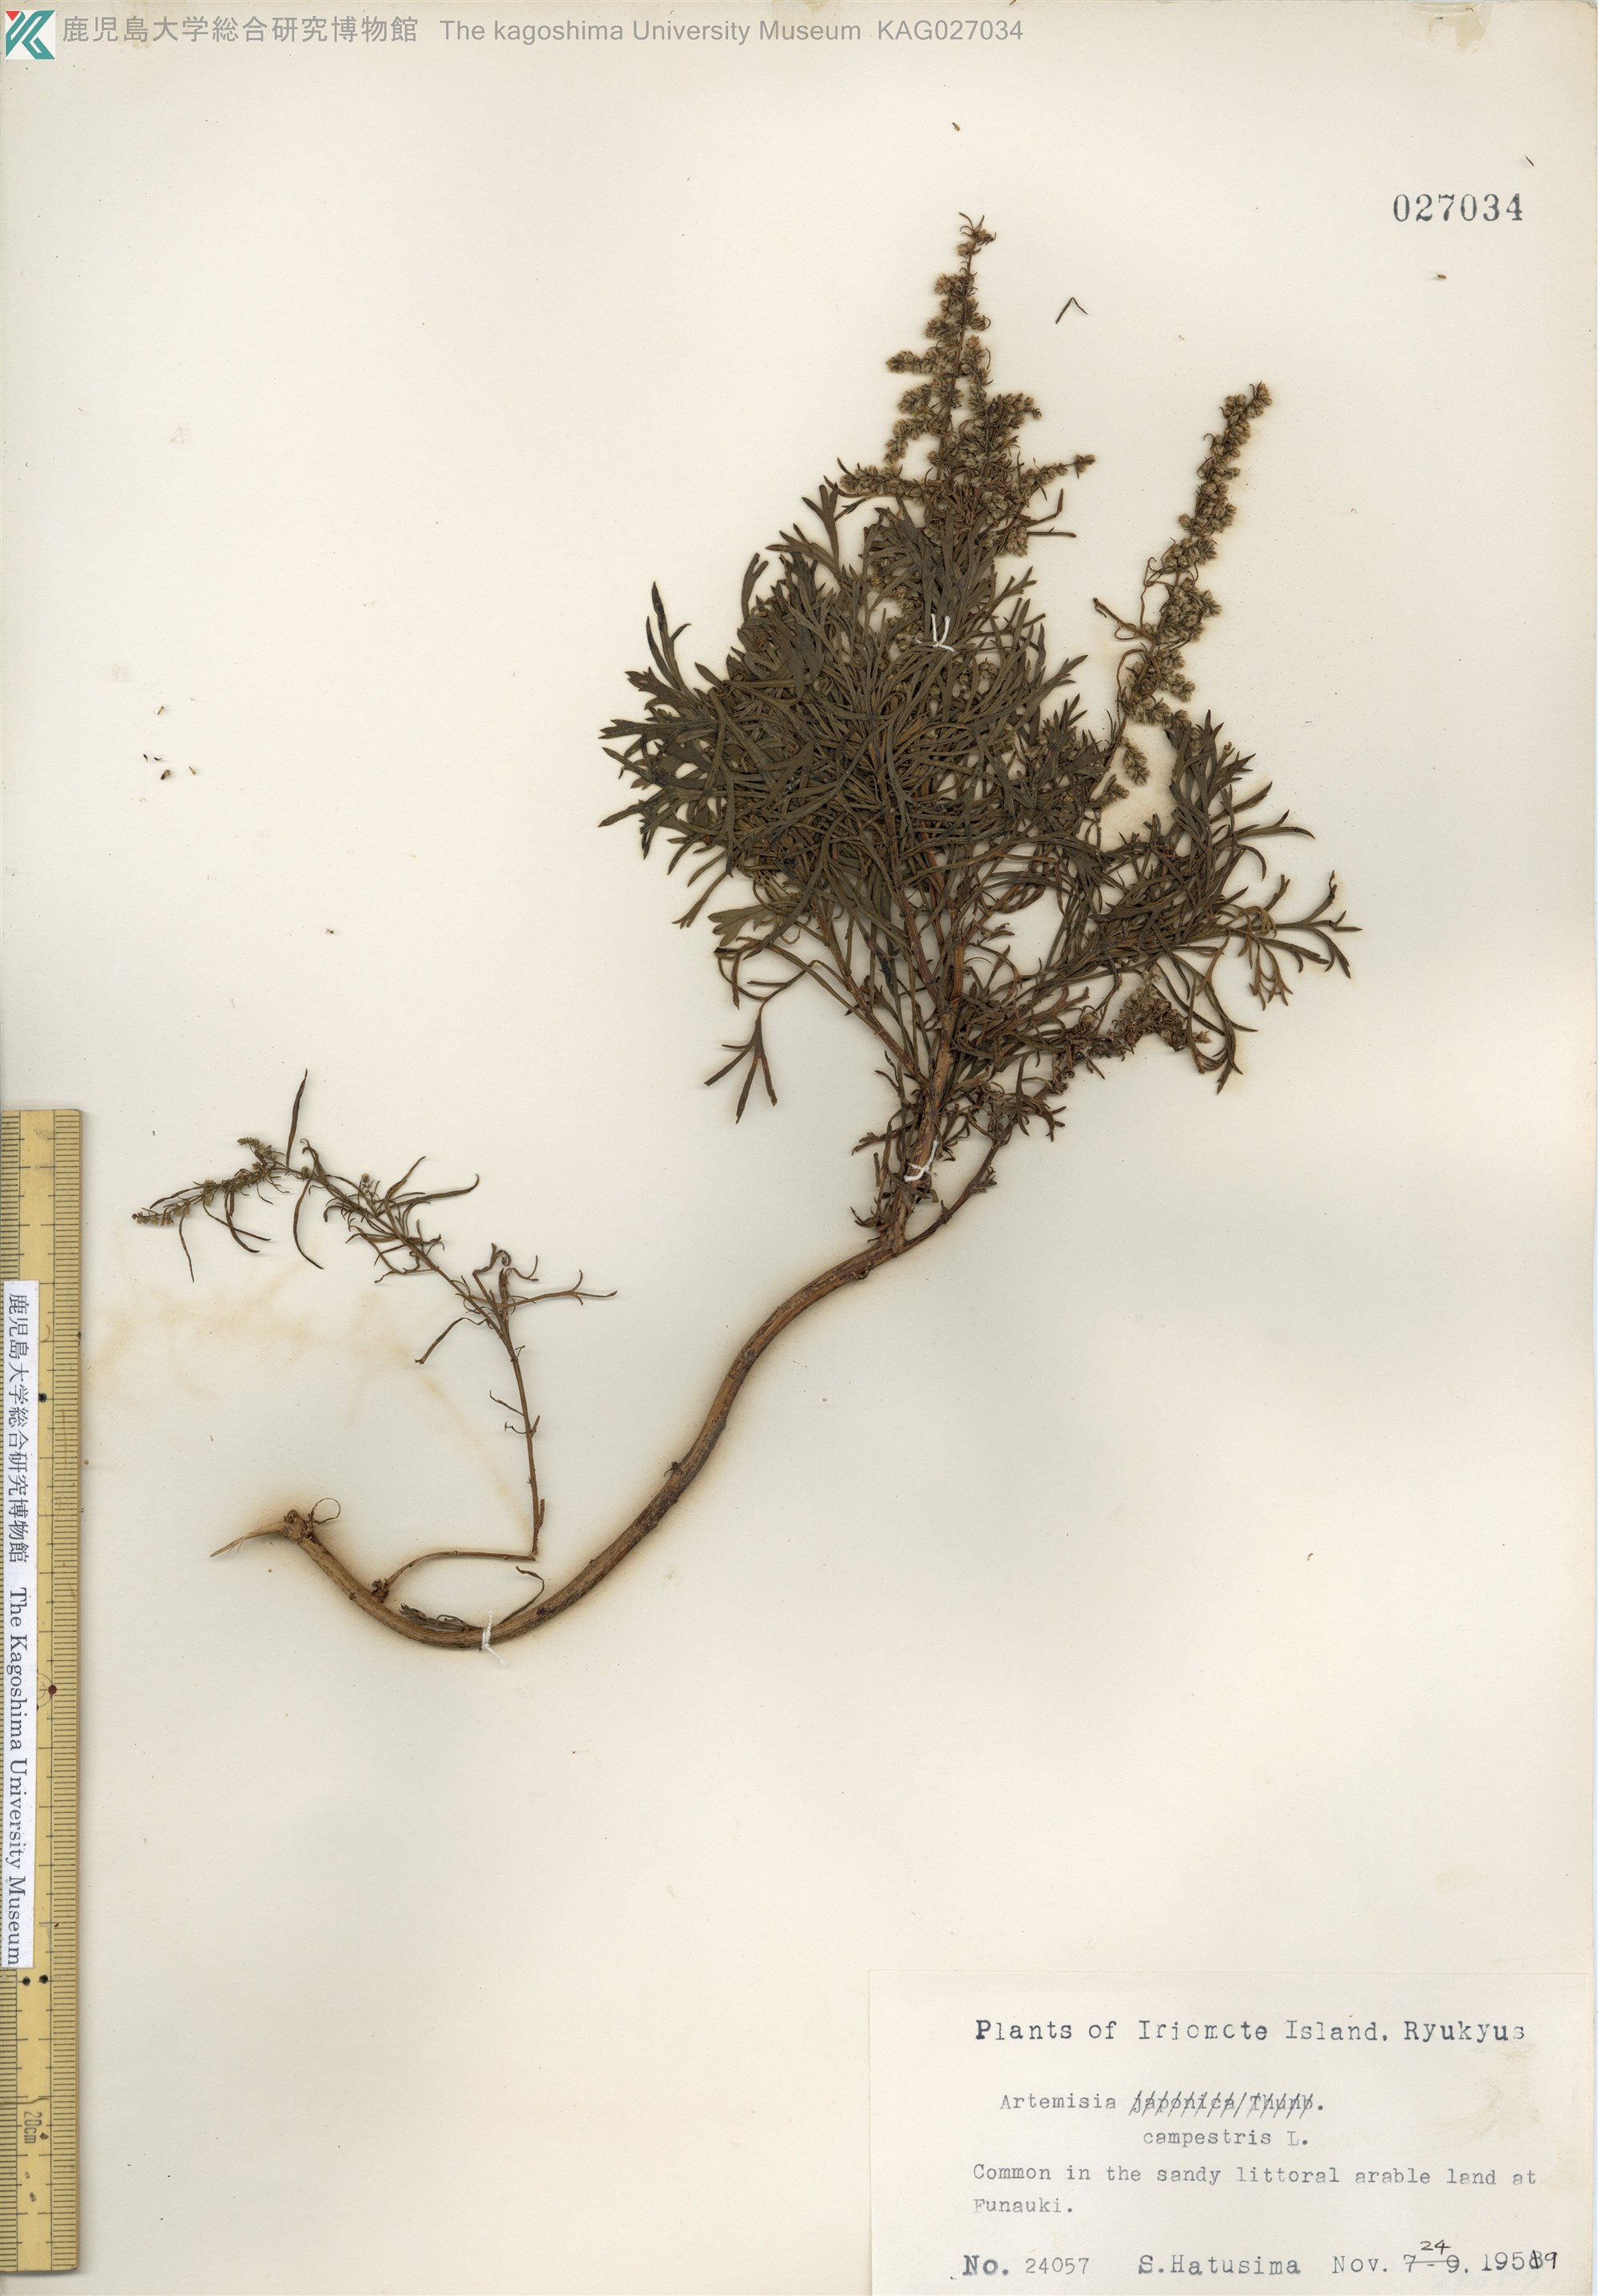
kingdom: Plantae
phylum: Tracheophyta
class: Magnoliopsida
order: Asterales
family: Asteraceae
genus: Artemisia
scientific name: Artemisia morrisonensis
